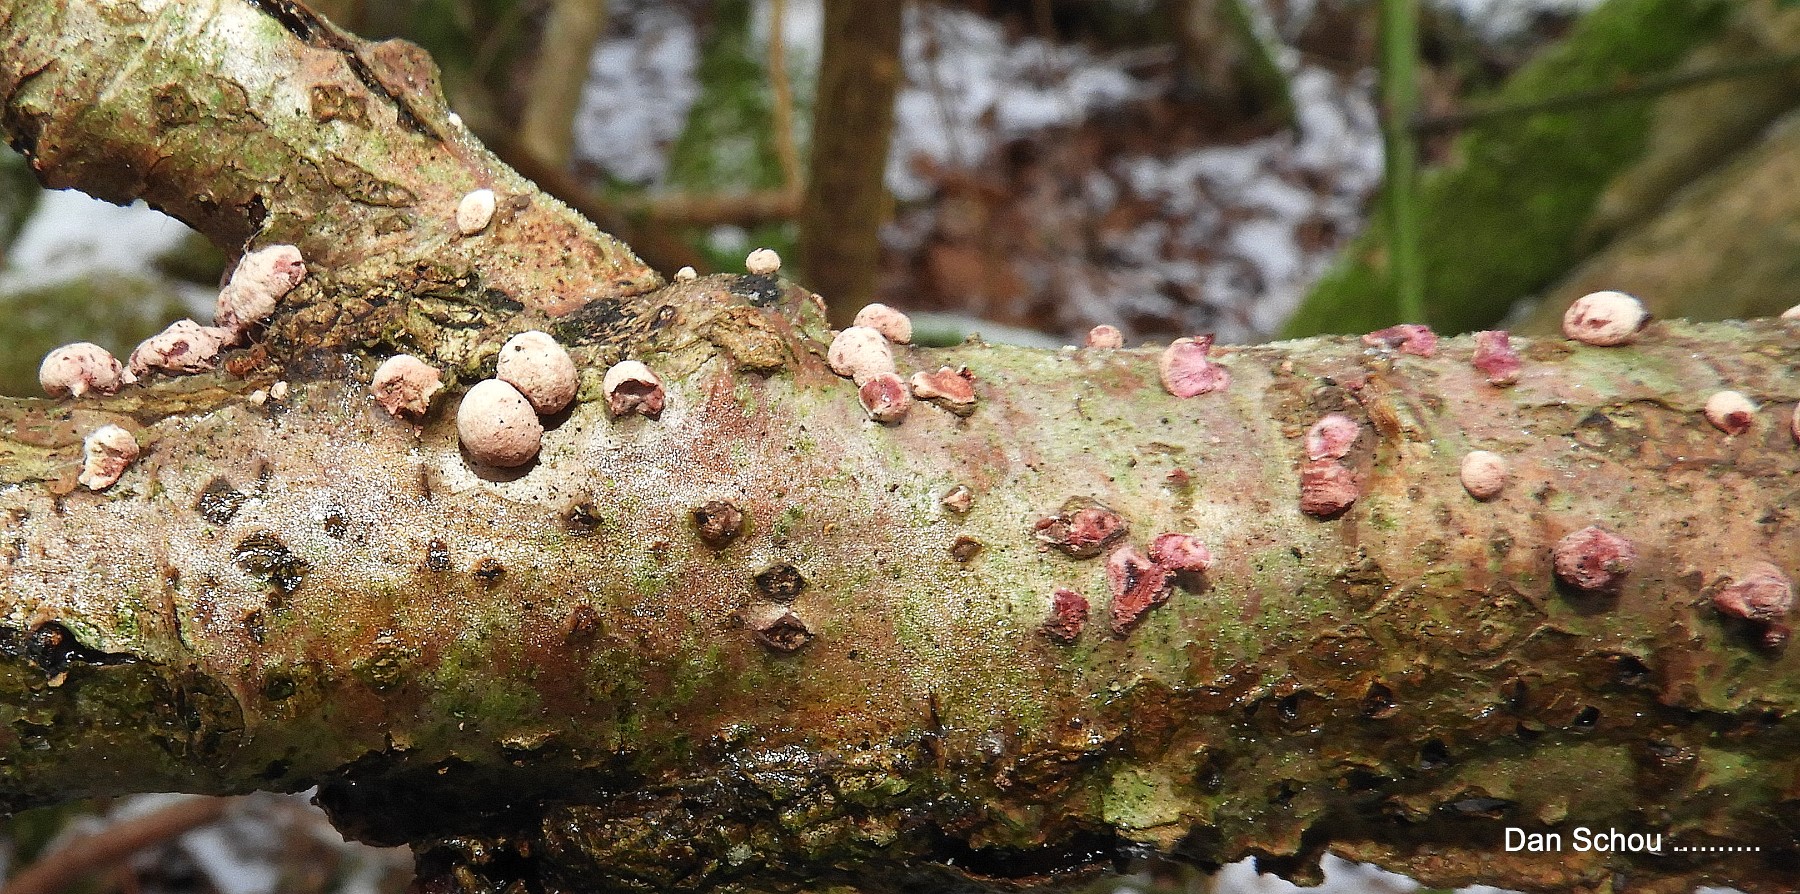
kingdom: Fungi
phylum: Ascomycota
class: Sordariomycetes
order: Hypocreales
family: Hypocreaceae
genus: Trichoderma
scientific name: Trichoderma europaeum
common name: rosabrun kødkerne
